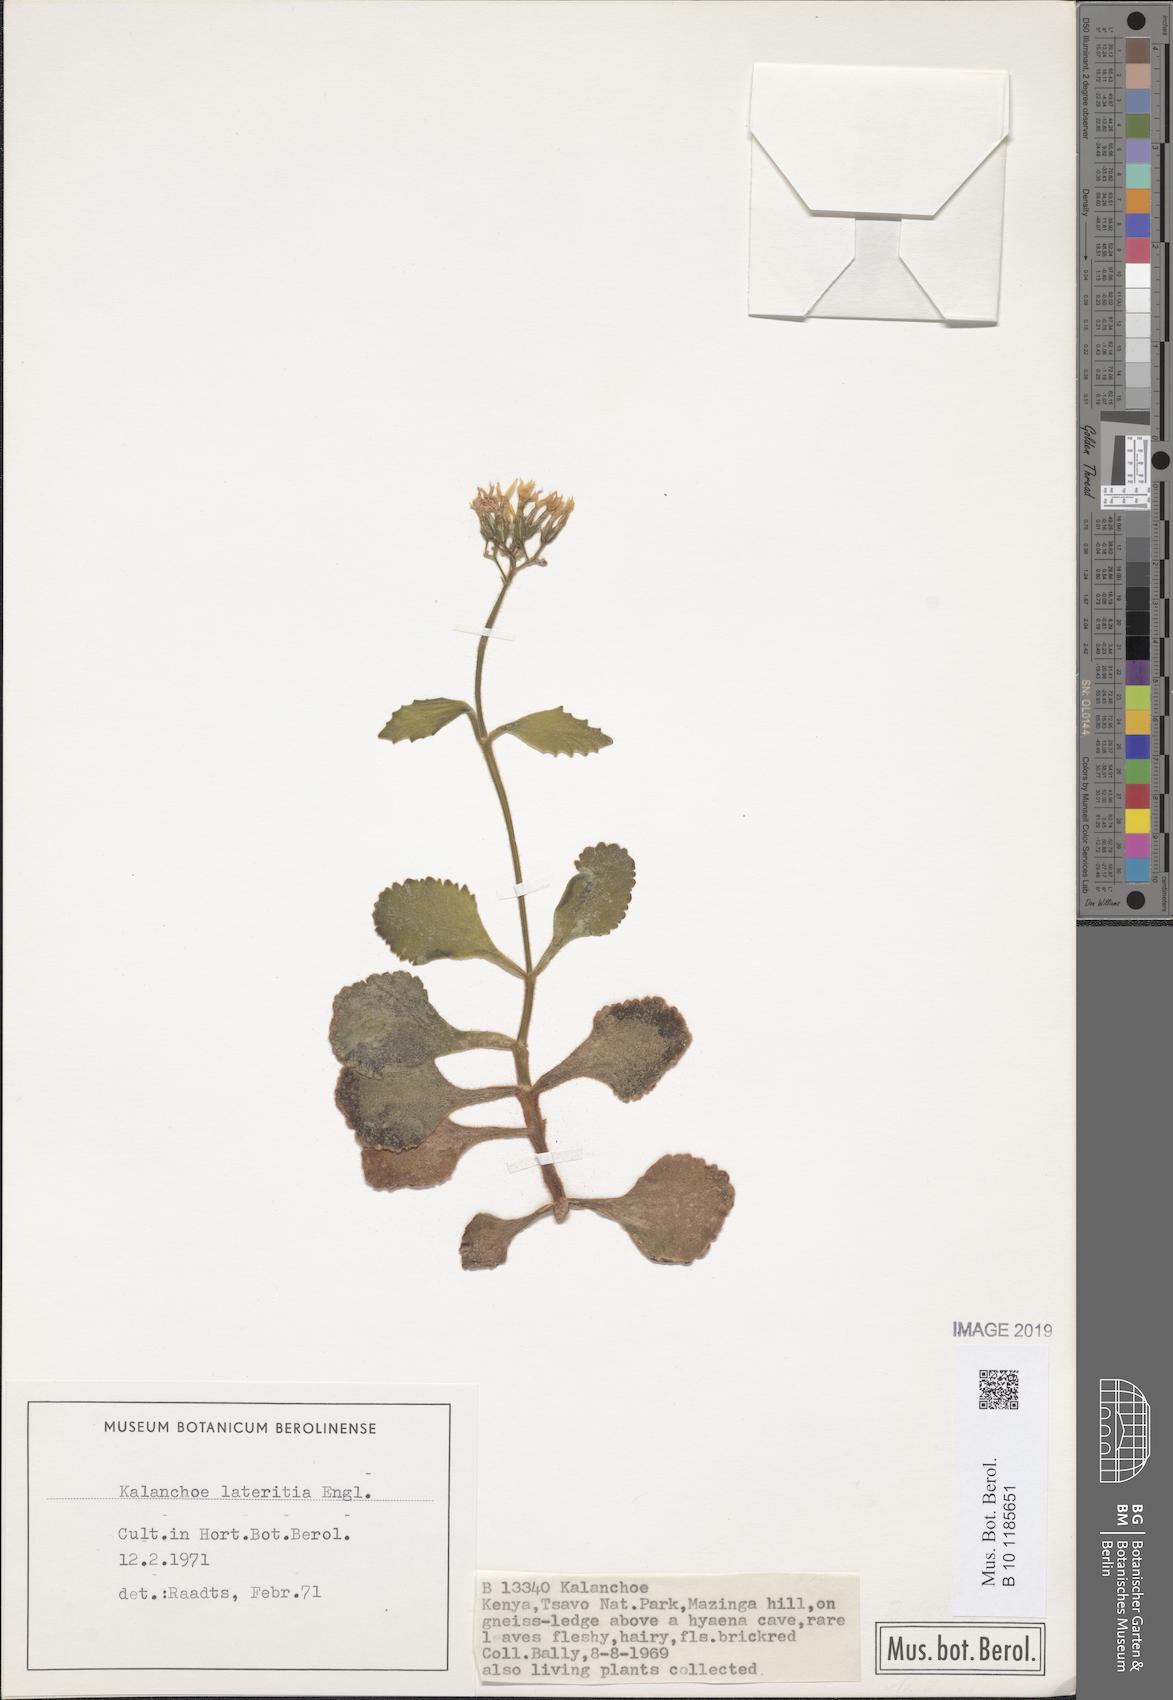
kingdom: Plantae
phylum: Tracheophyta
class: Magnoliopsida
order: Saxifragales
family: Crassulaceae
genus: Kalanchoe
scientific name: Kalanchoe lateritia
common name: Kalanchoe
